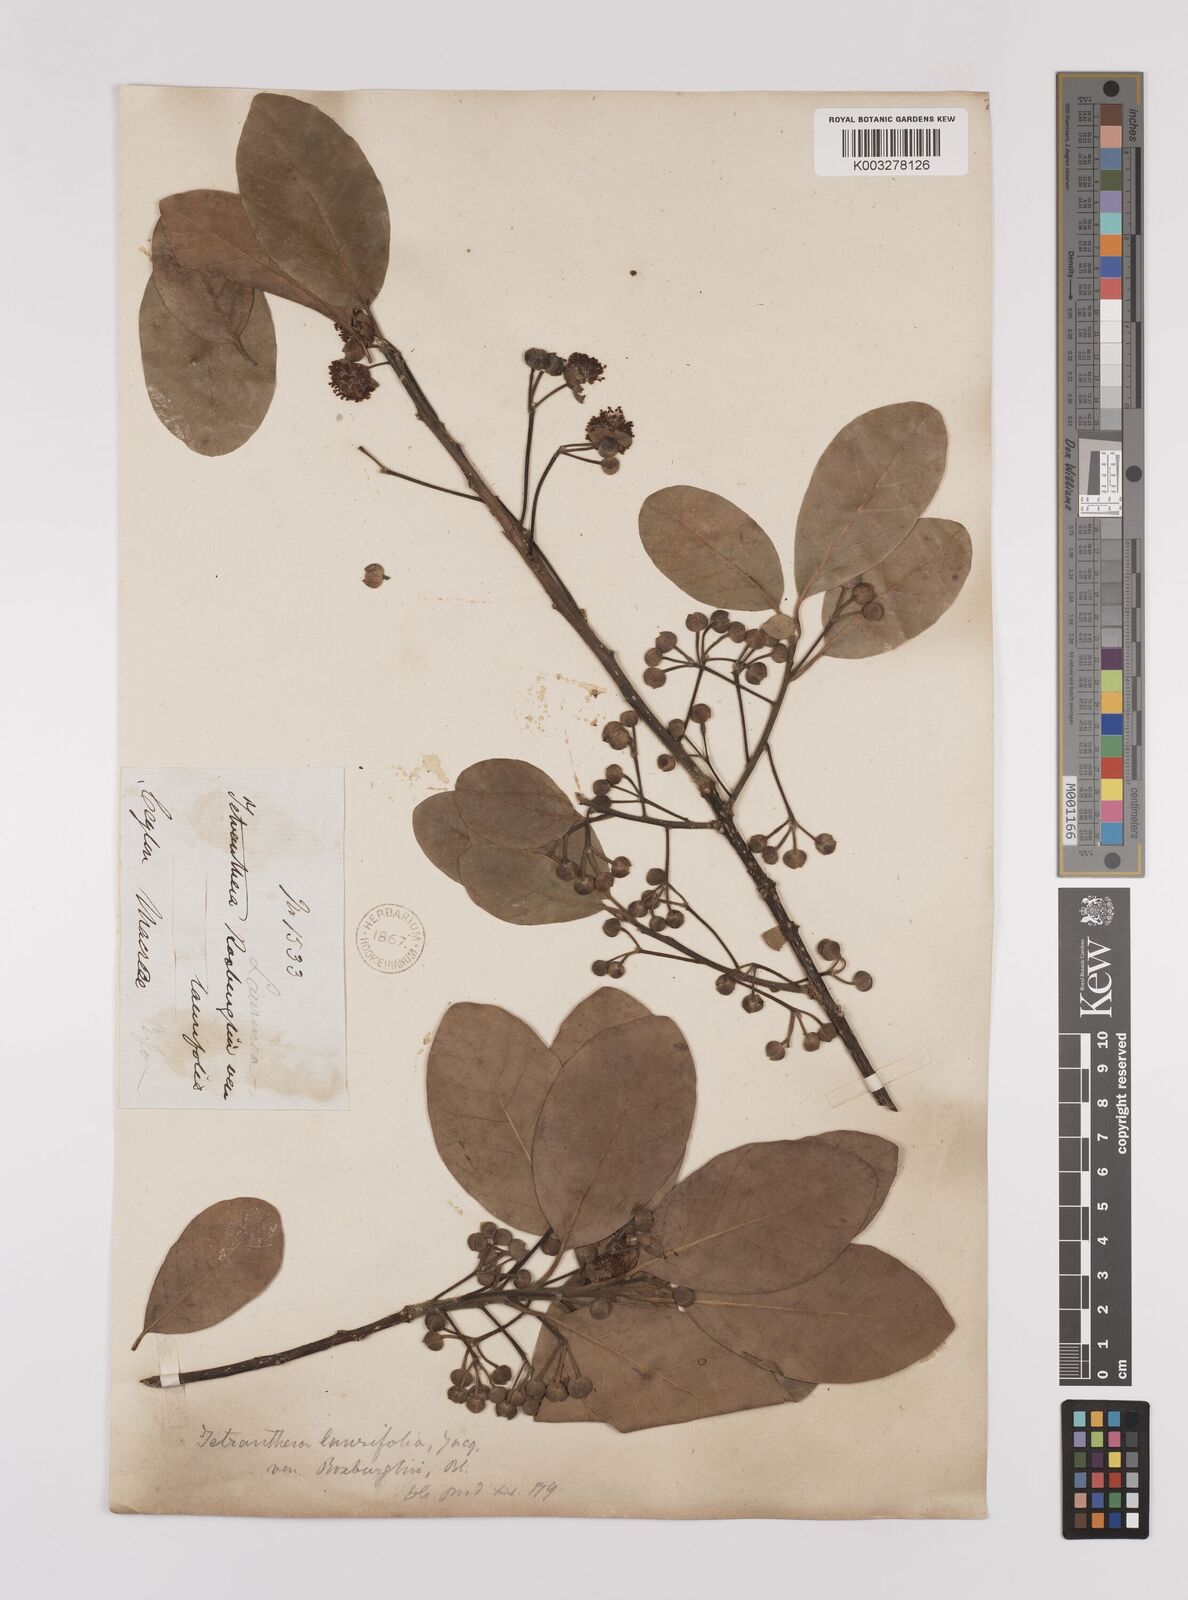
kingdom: Plantae
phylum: Tracheophyta
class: Magnoliopsida
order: Laurales
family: Lauraceae
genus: Litsea
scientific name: Litsea
